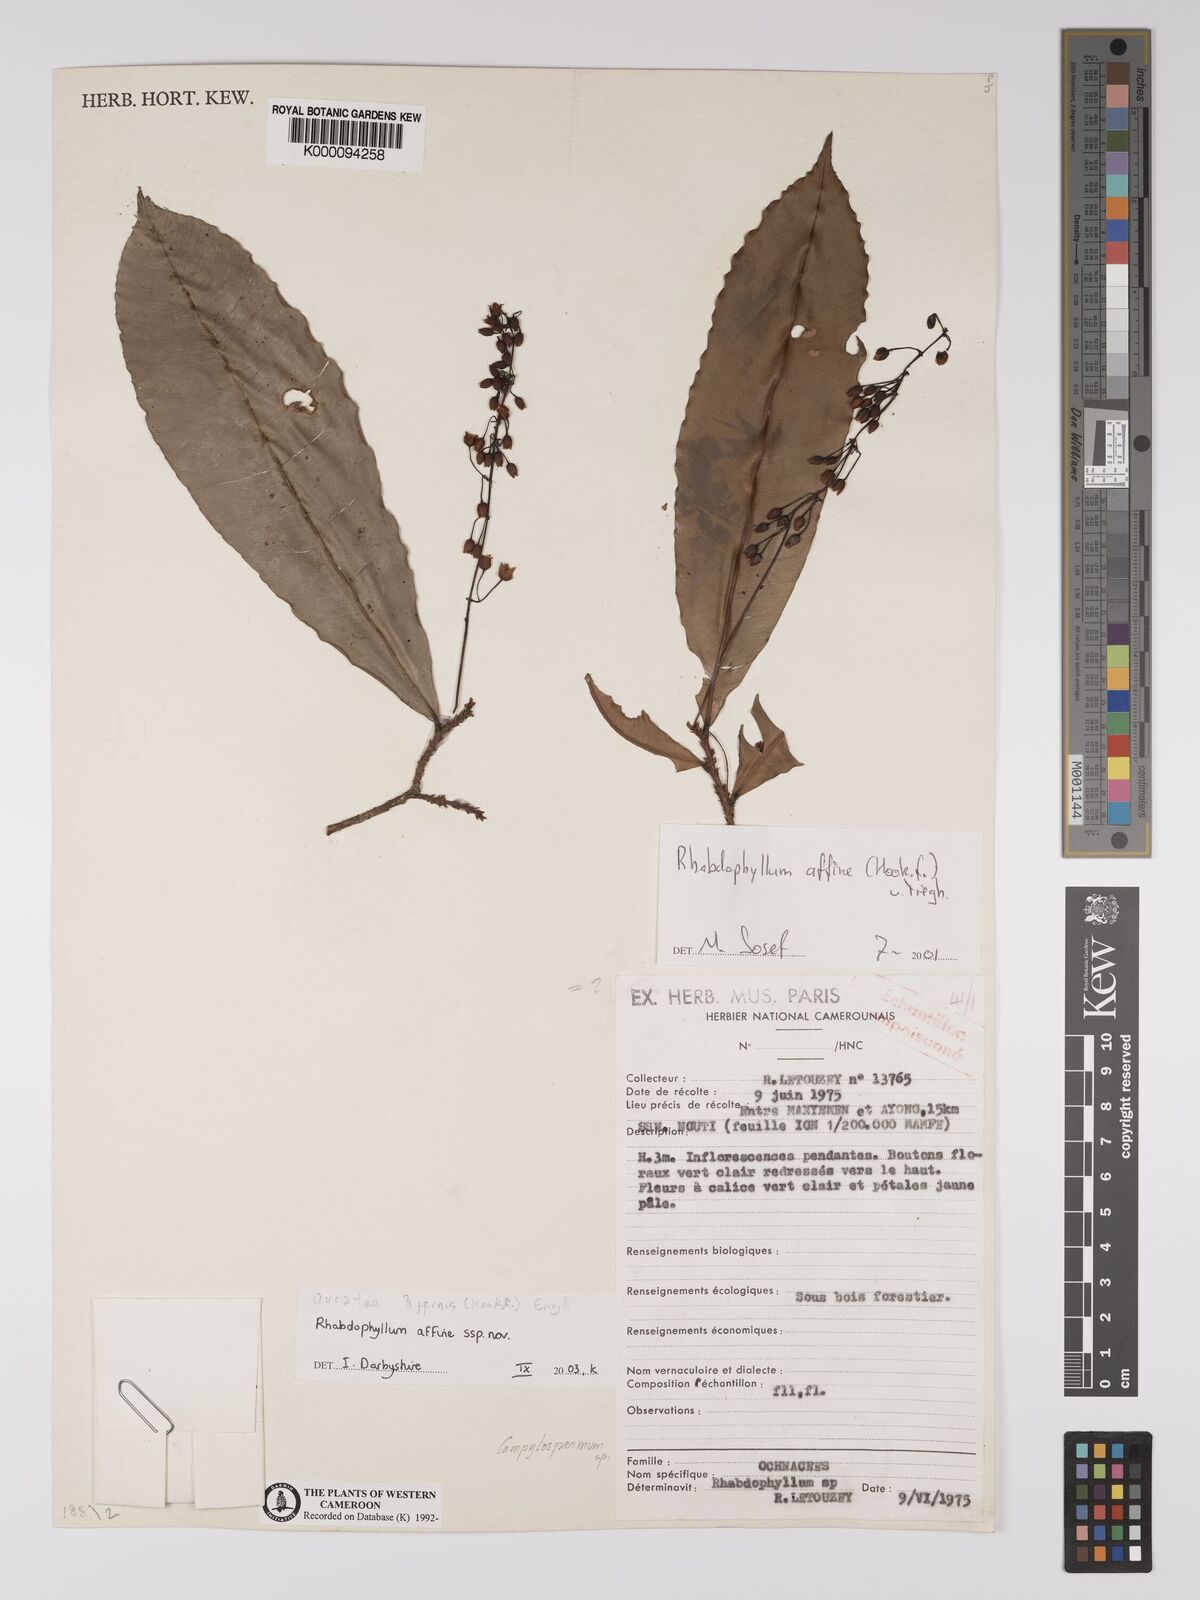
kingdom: Plantae
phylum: Tracheophyta
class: Magnoliopsida
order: Malpighiales
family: Ochnaceae
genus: Rhabdophyllum
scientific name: Rhabdophyllum affine
